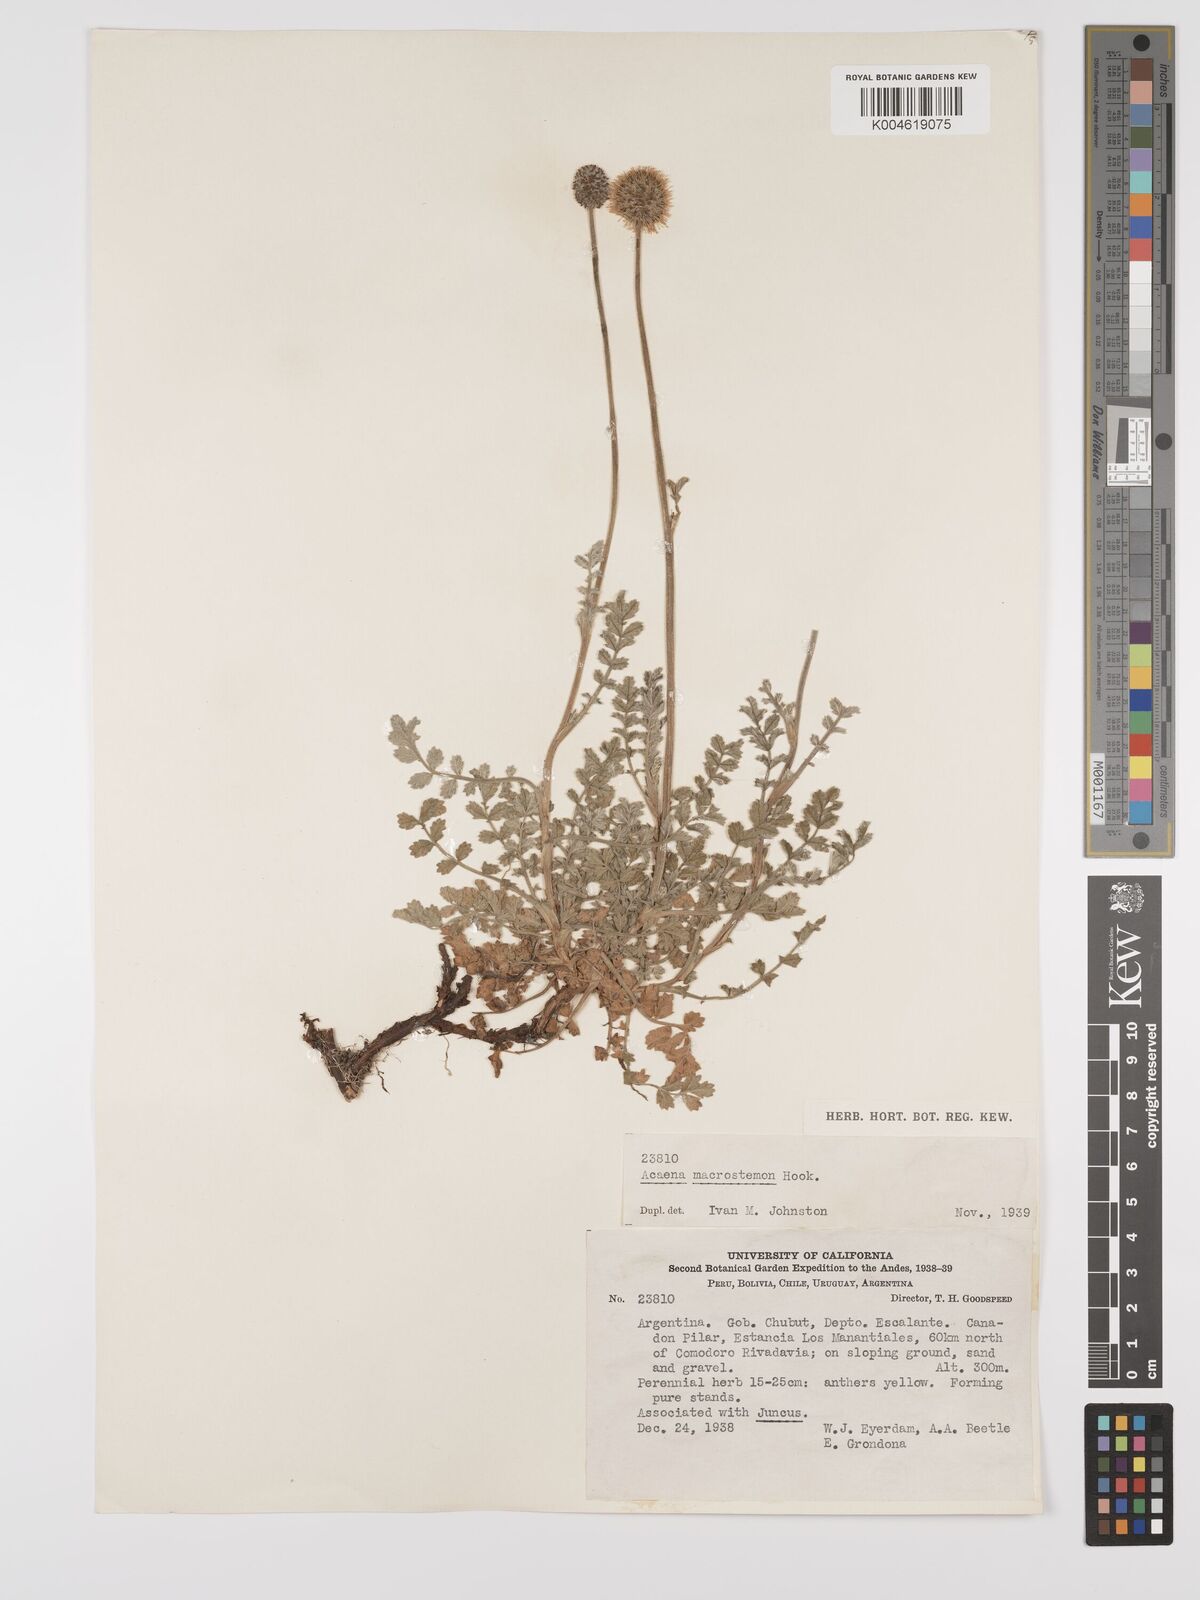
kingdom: Plantae
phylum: Tracheophyta
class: Magnoliopsida
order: Rosales
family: Rosaceae
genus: Acaena
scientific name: Acaena magellanica
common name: New zealand burr
